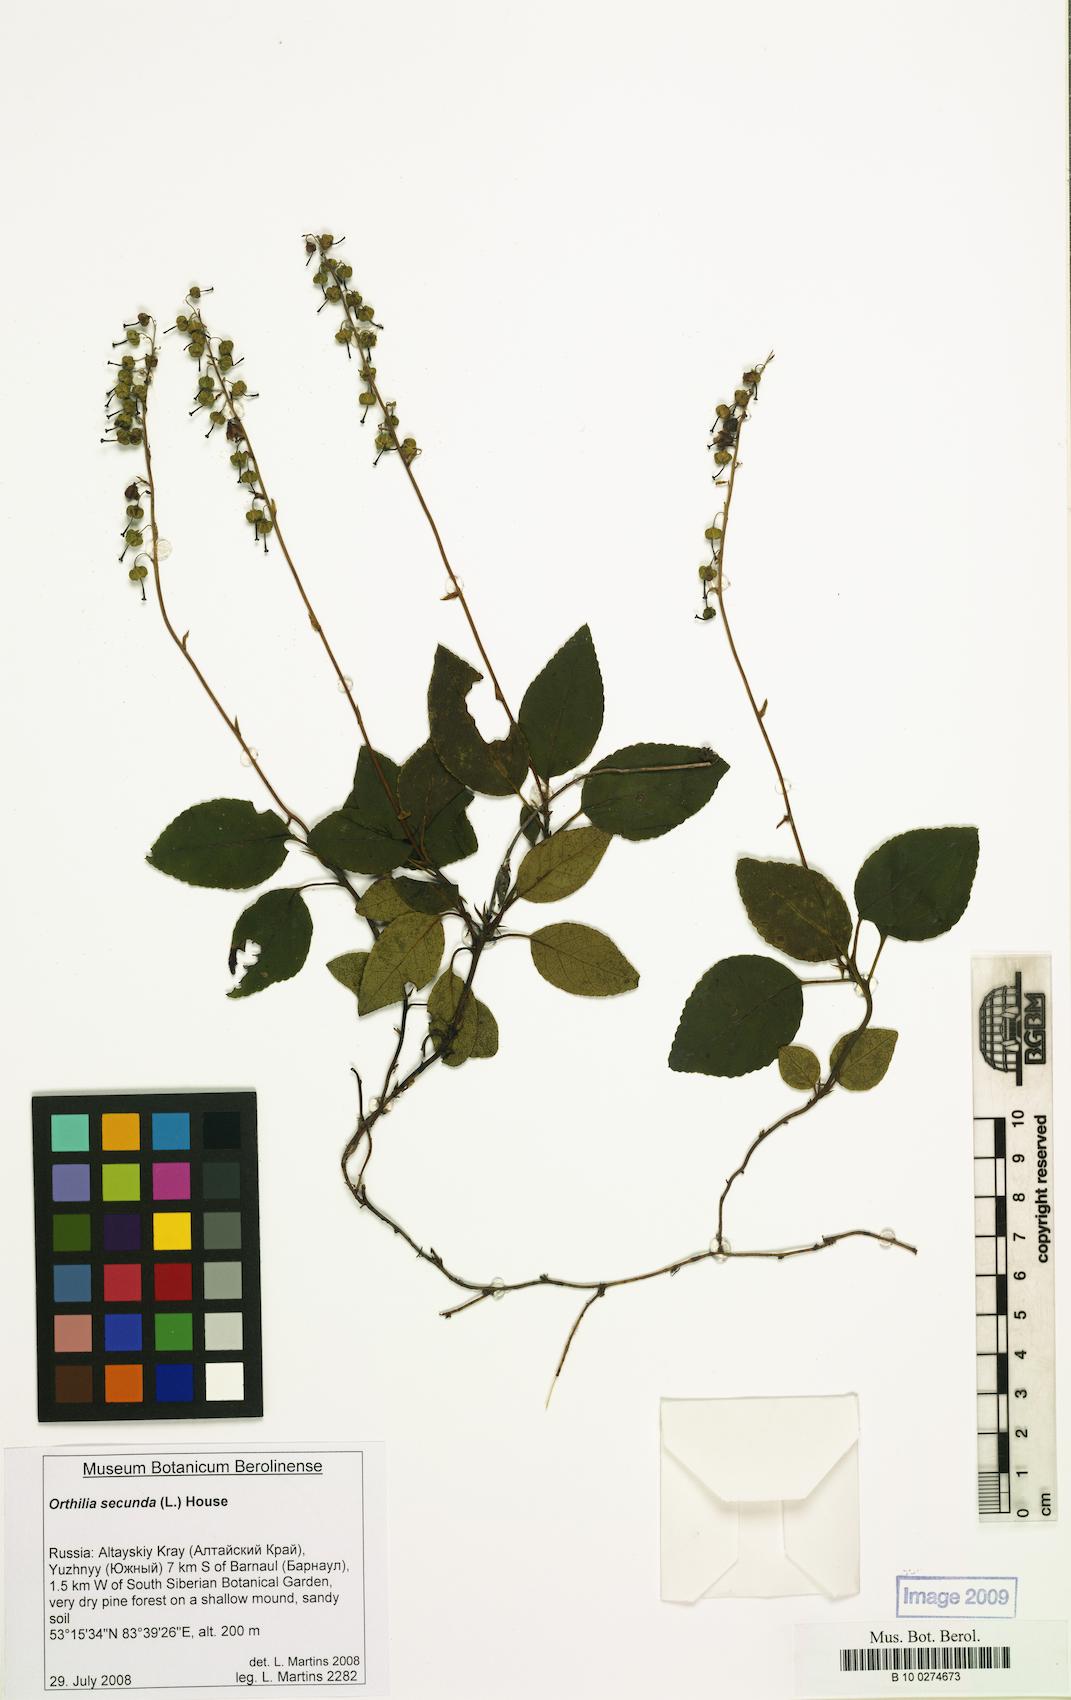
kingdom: Plantae
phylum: Tracheophyta
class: Magnoliopsida
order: Ericales
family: Ericaceae
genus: Orthilia
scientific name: Orthilia secunda
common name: One-sided orthilia
